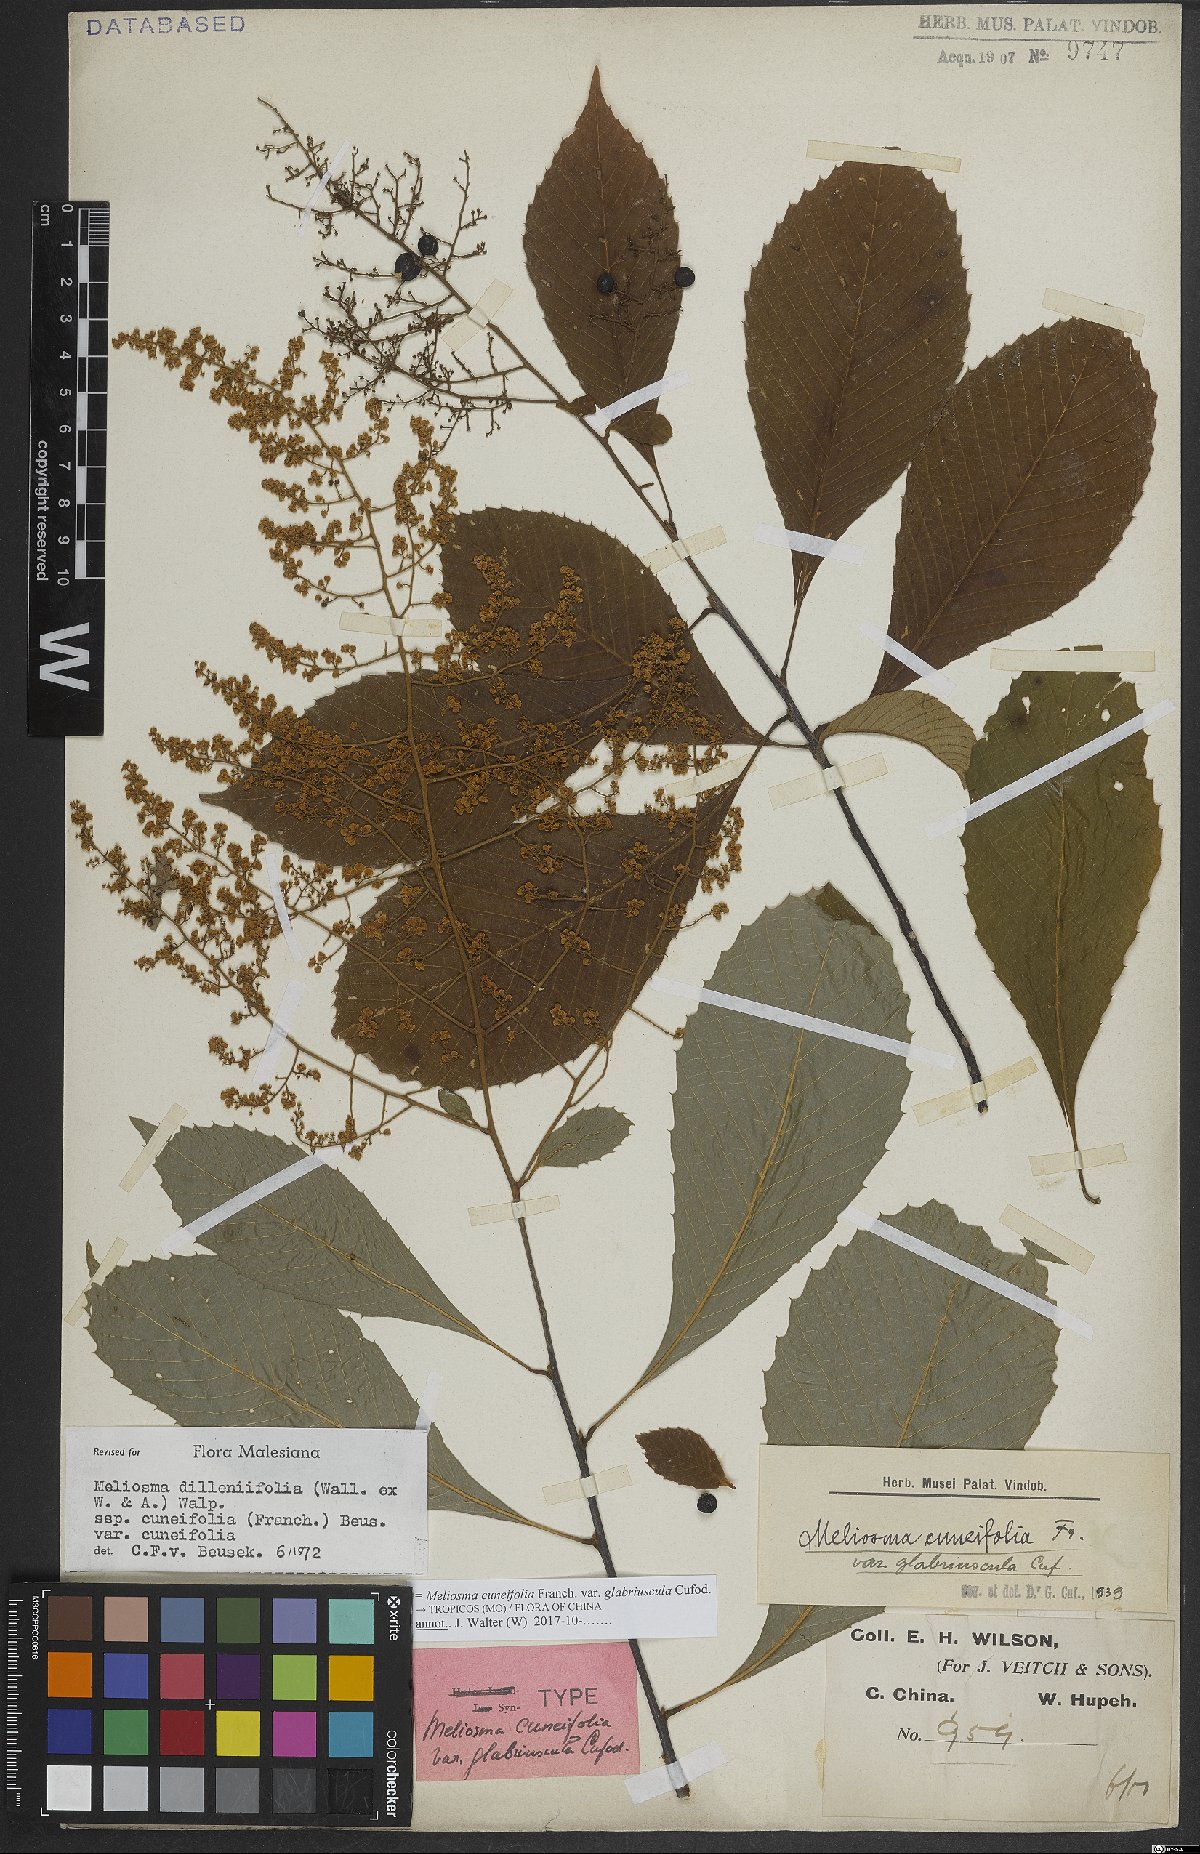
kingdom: Plantae
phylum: Tracheophyta
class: Magnoliopsida
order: Proteales
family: Sabiaceae
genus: Meliosma
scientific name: Meliosma cuneifolia
